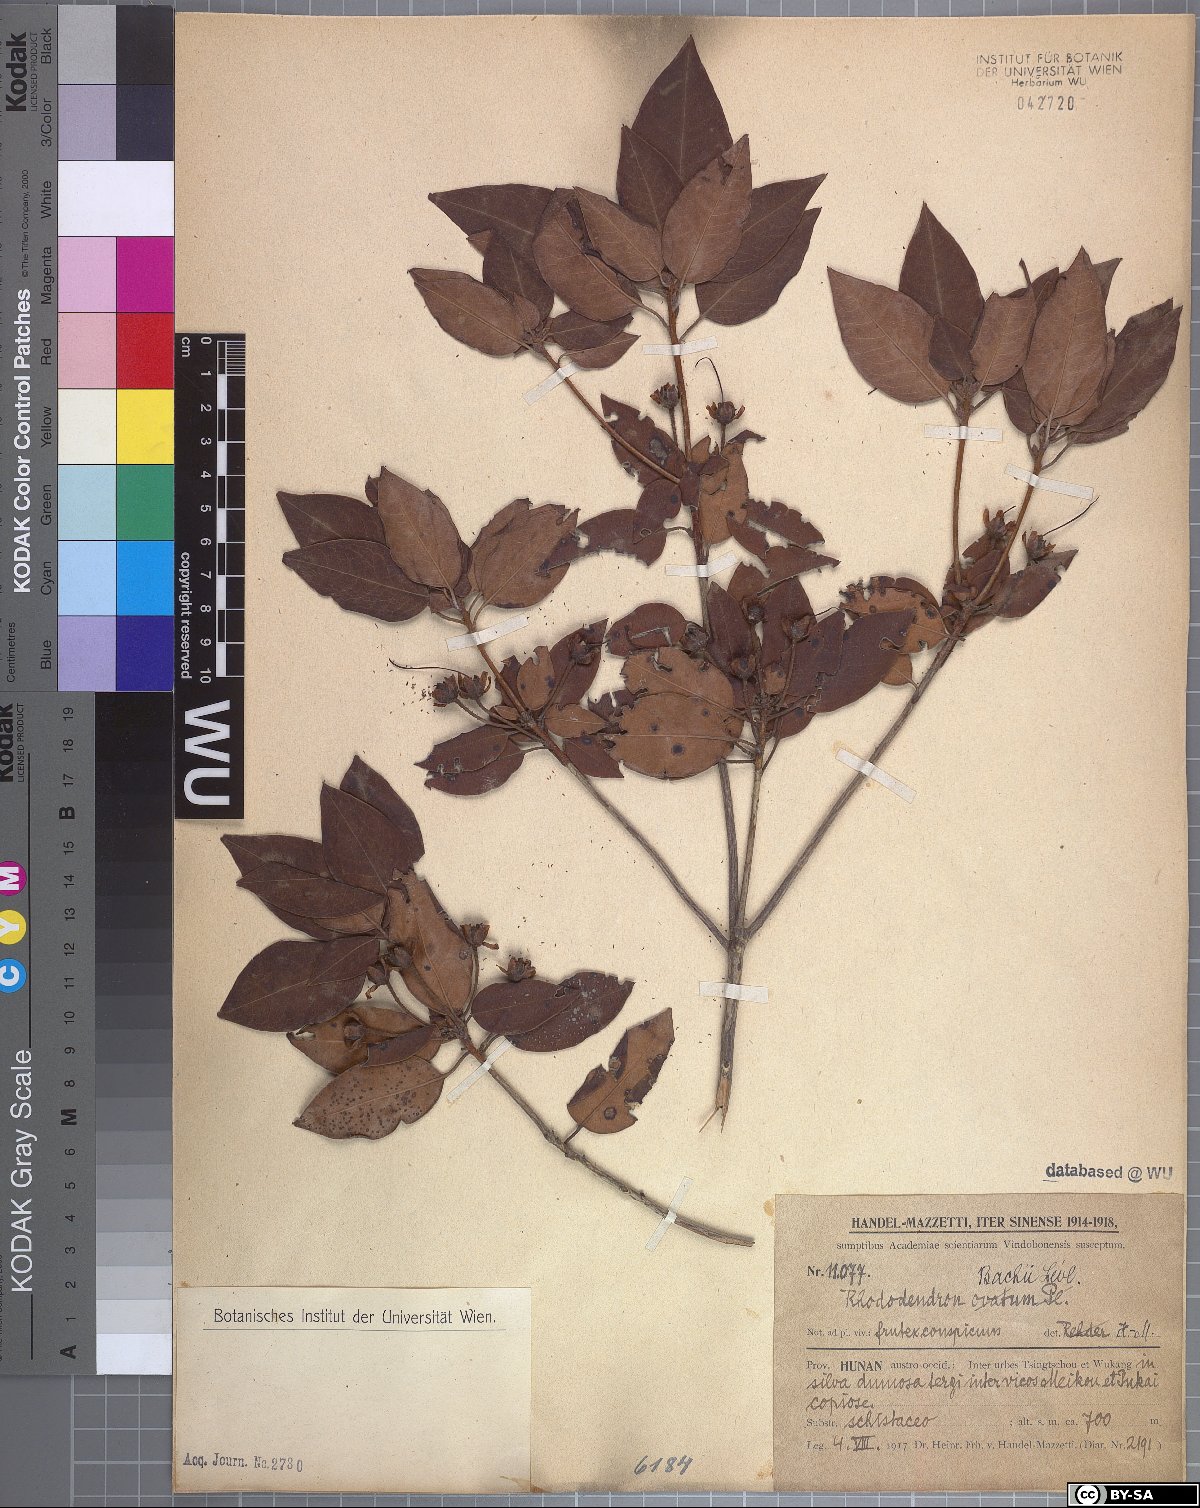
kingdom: Plantae
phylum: Tracheophyta
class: Magnoliopsida
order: Ericales
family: Ericaceae
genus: Rhododendron
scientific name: Rhododendron bachii
